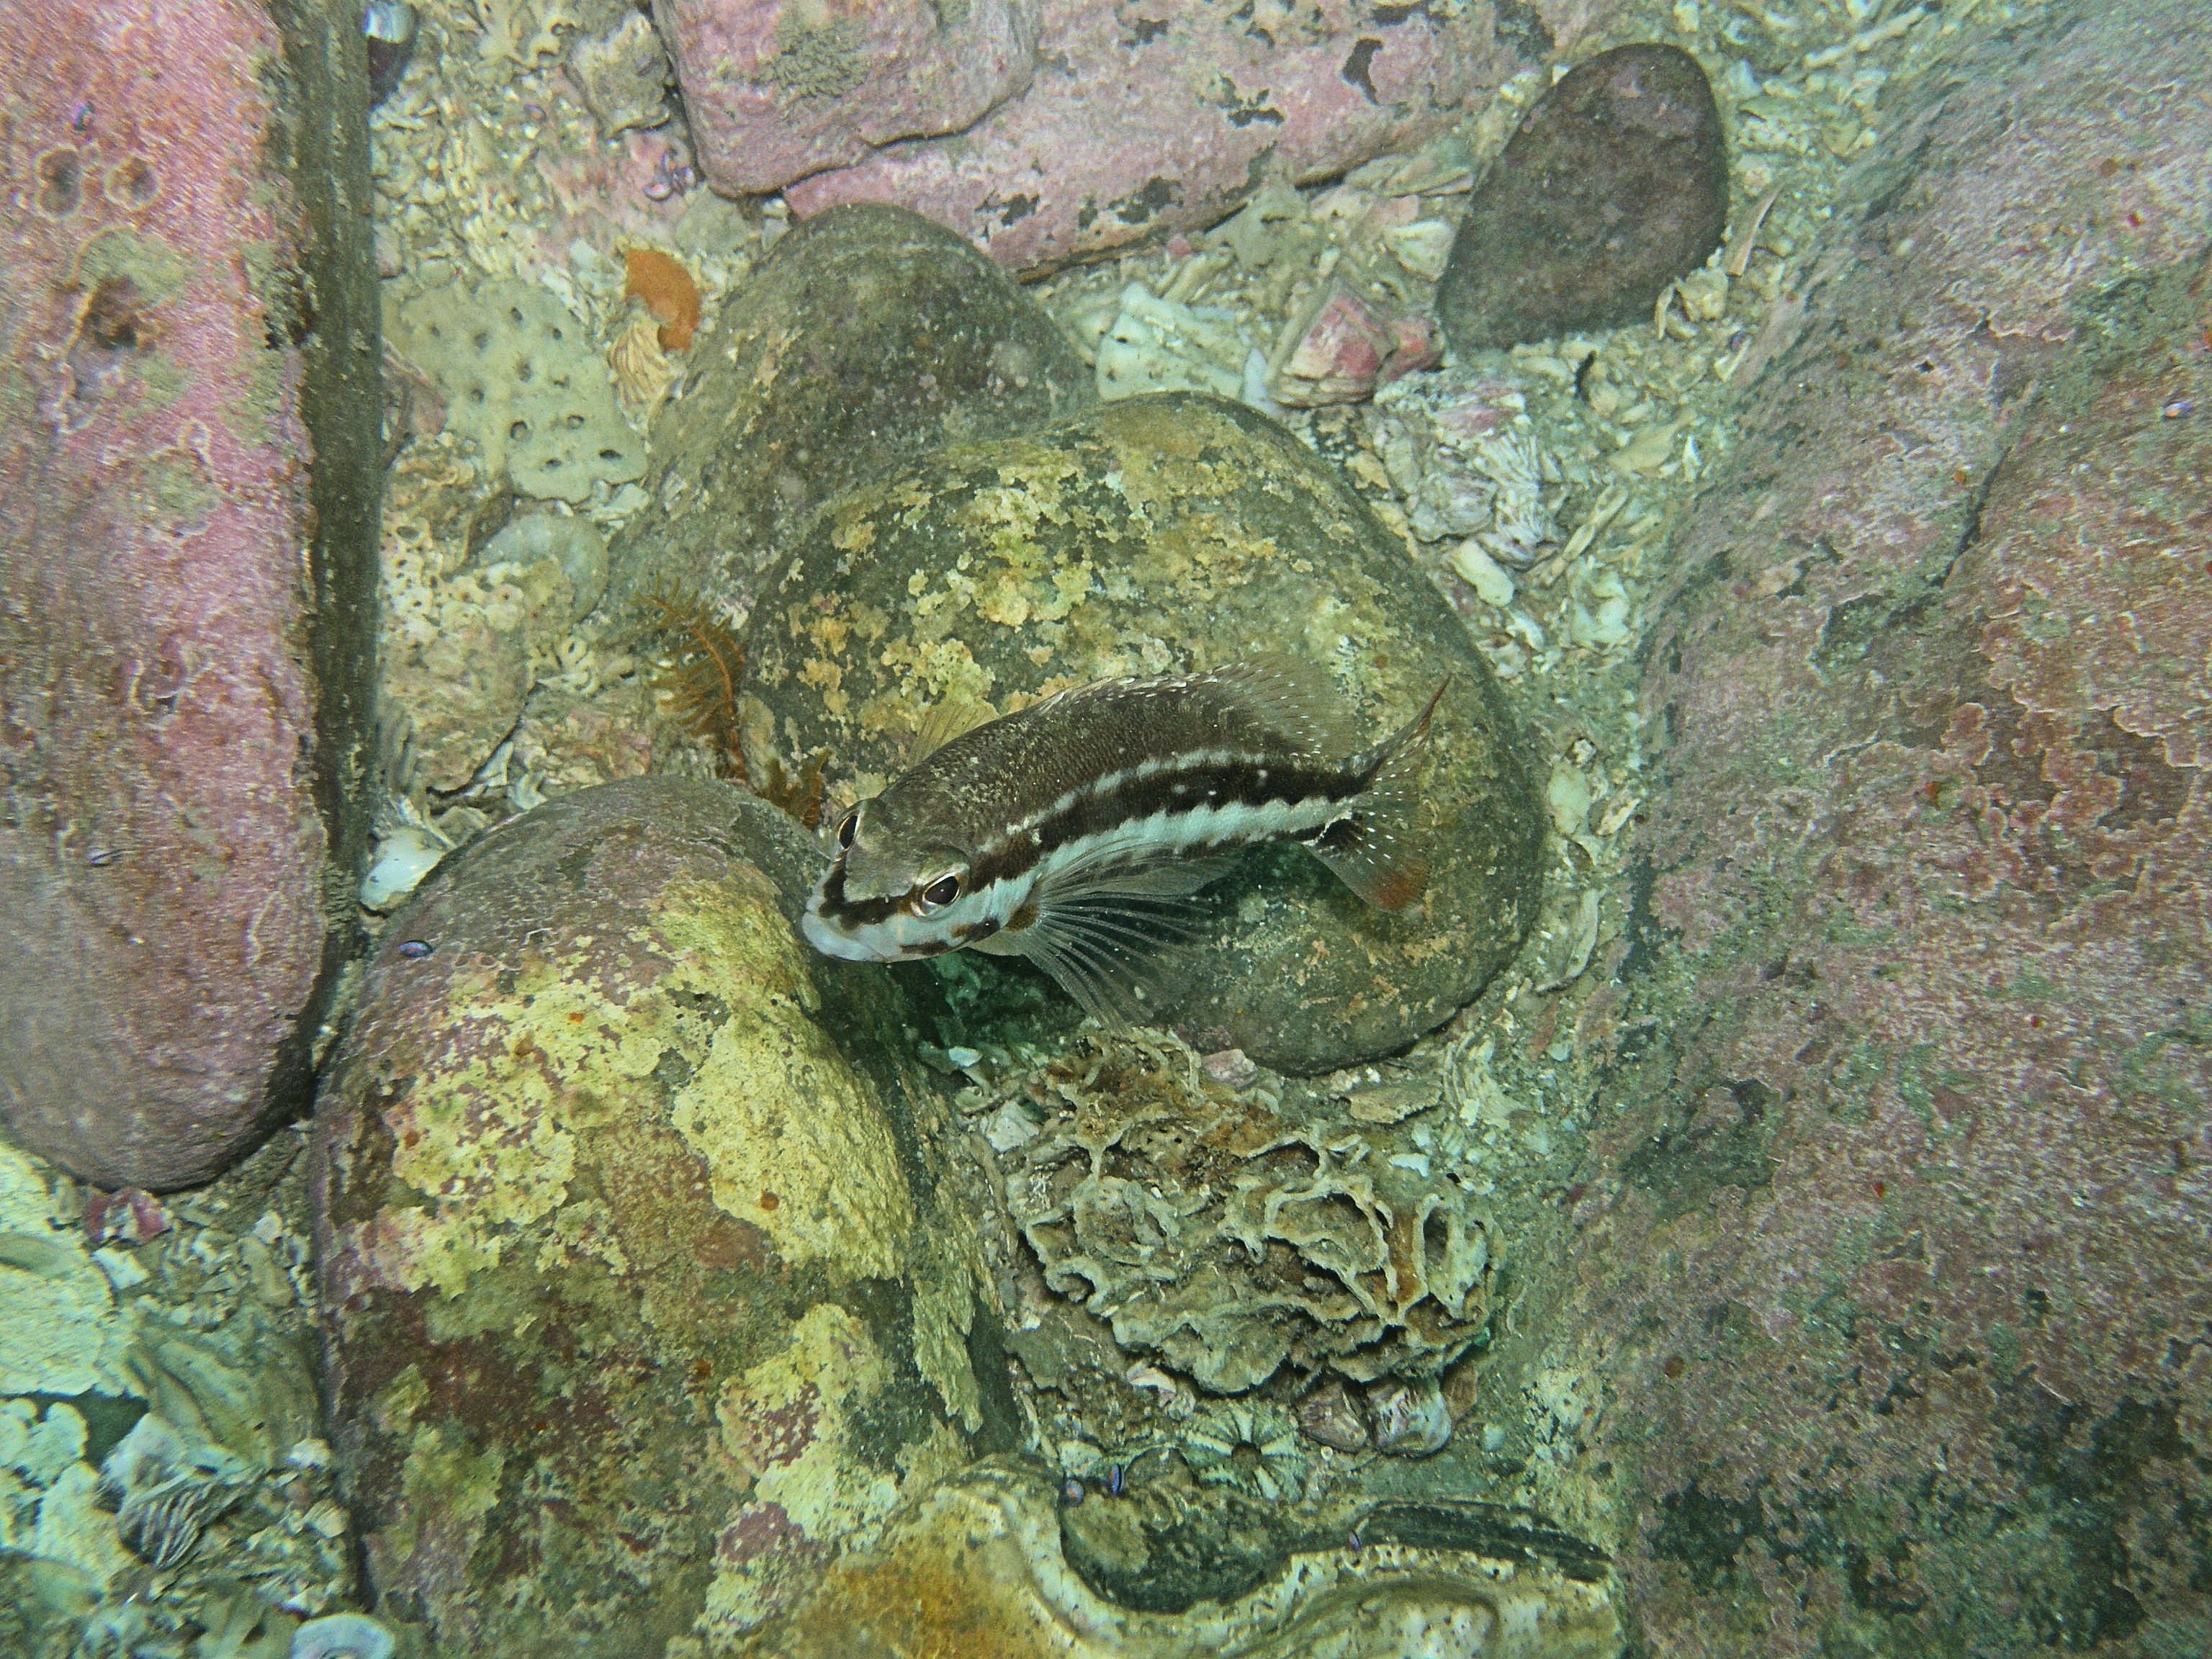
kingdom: Animalia
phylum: Chordata
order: Perciformes
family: Serranidae
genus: Serranus
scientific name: Serranus cabrilla
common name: Comber
